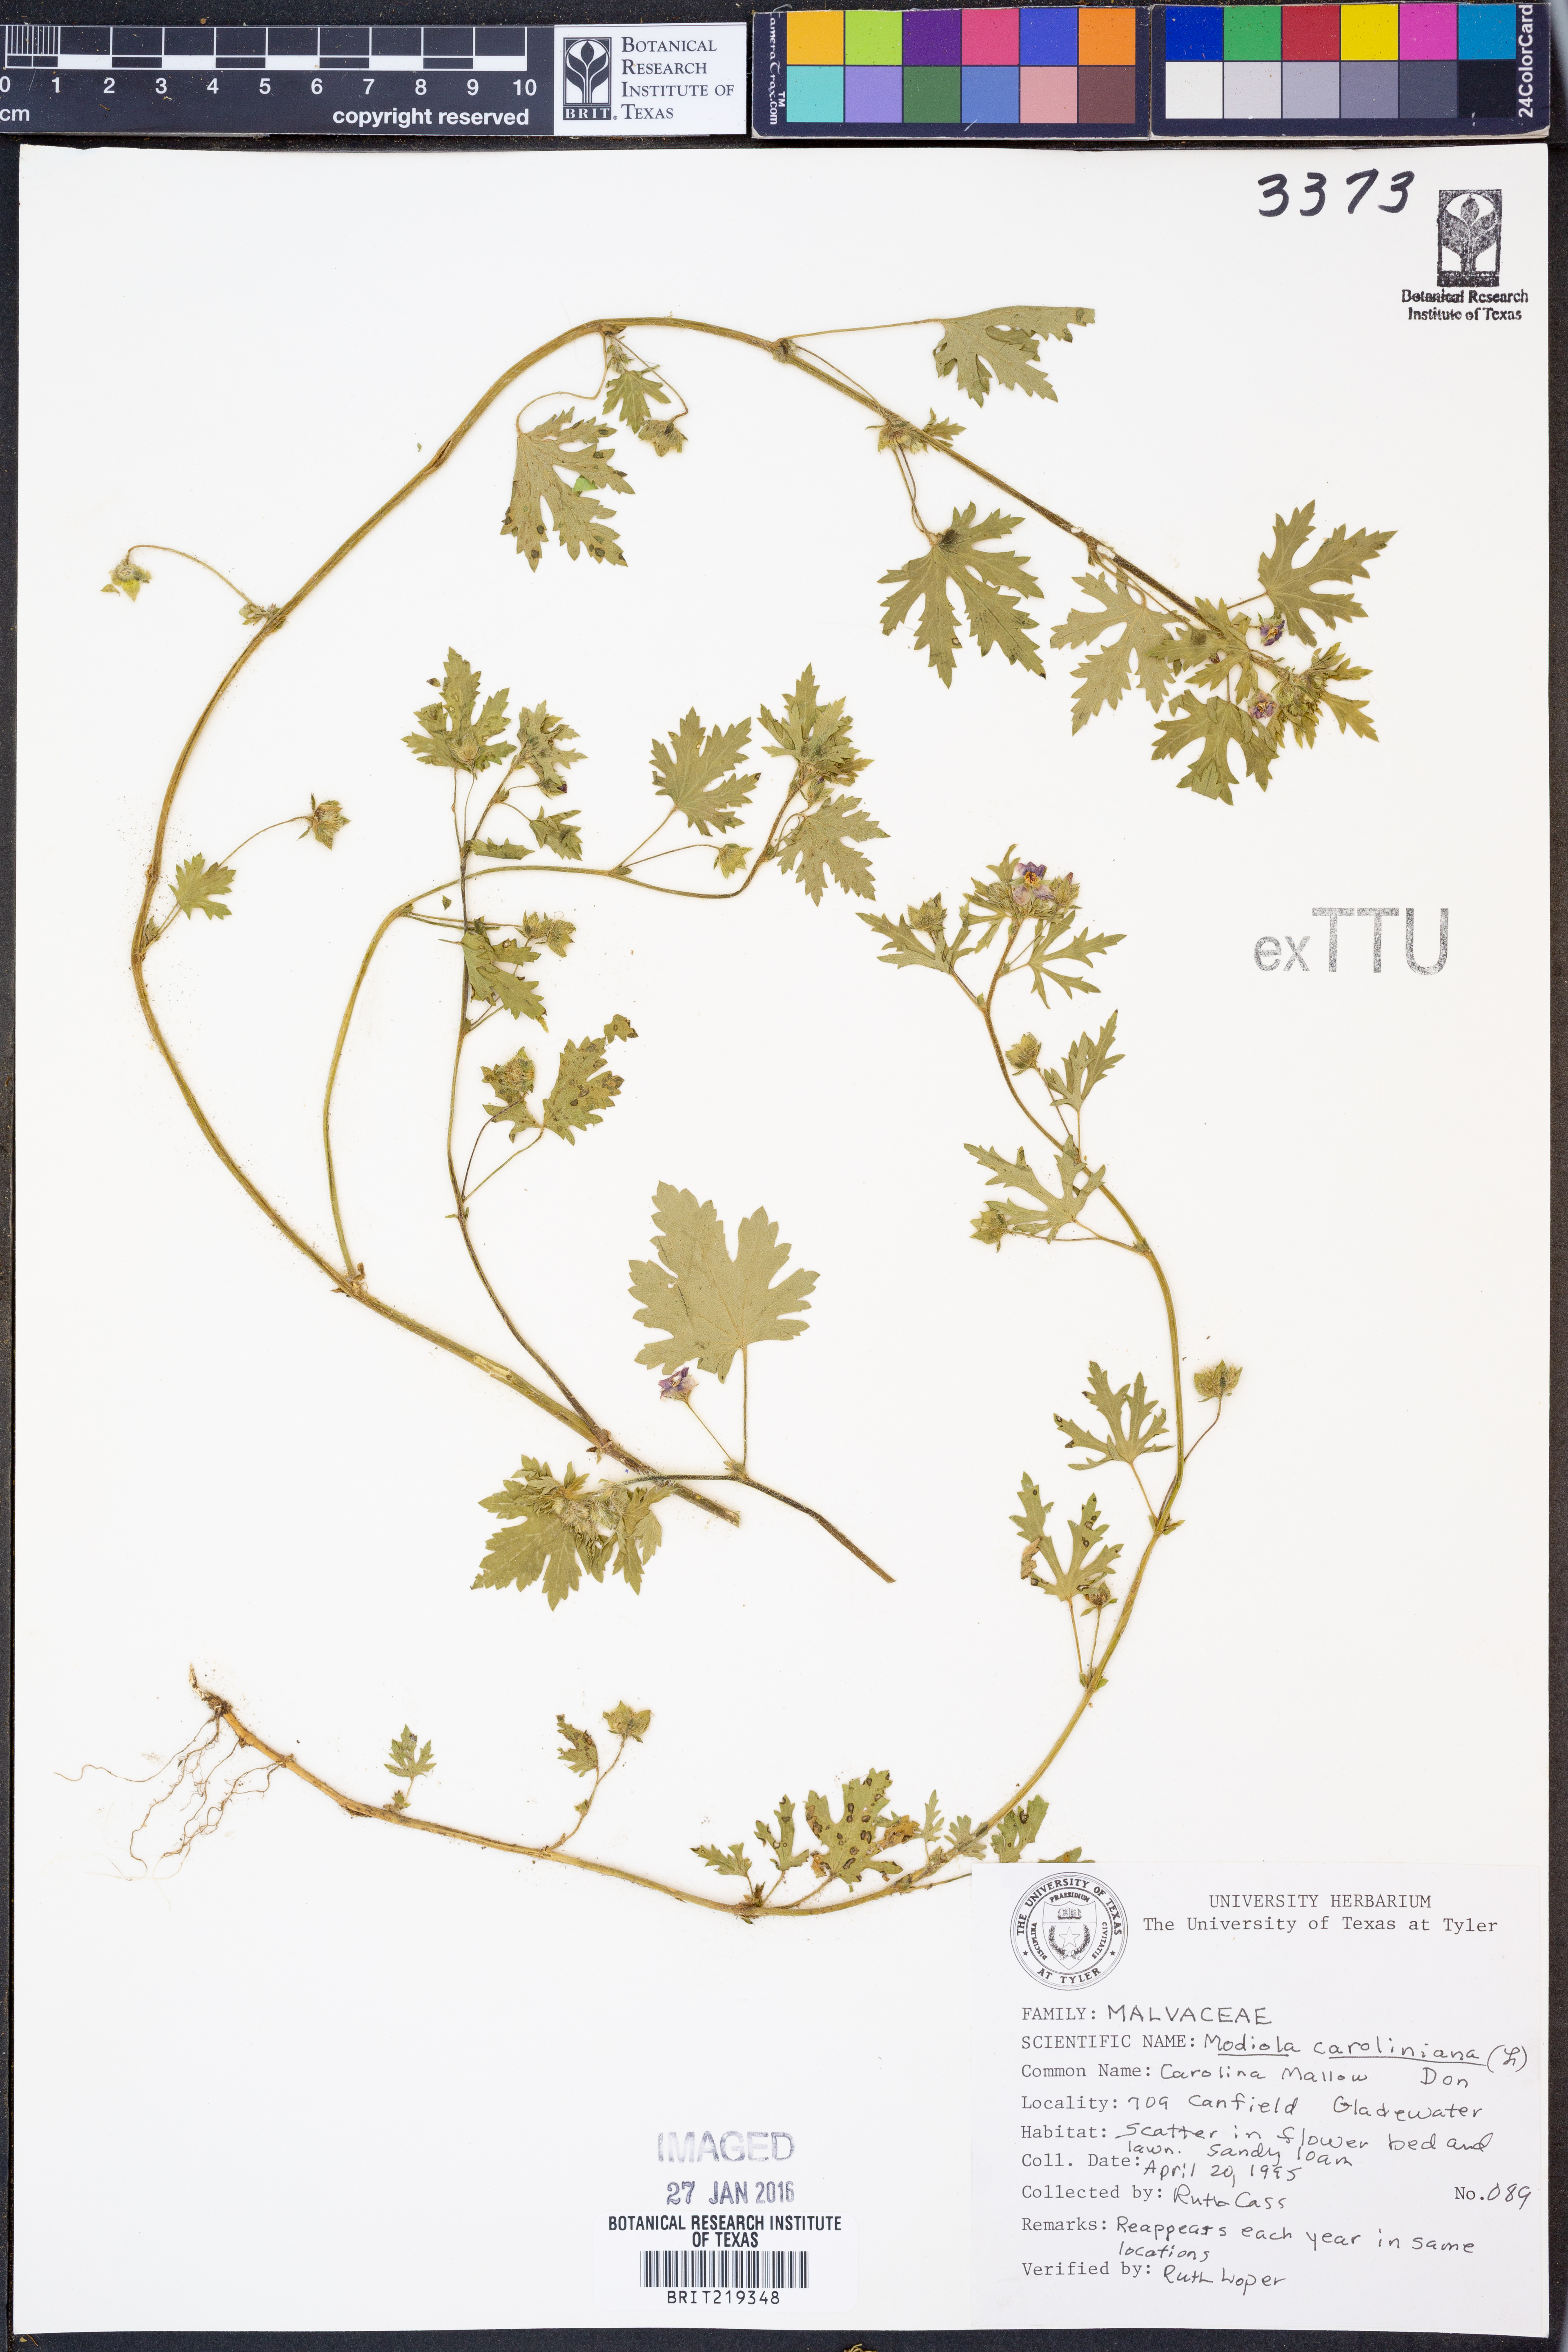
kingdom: Plantae
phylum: Tracheophyta
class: Magnoliopsida
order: Malvales
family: Malvaceae
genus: Modiola
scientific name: Modiola caroliniana
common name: Carolina bristlemallow
